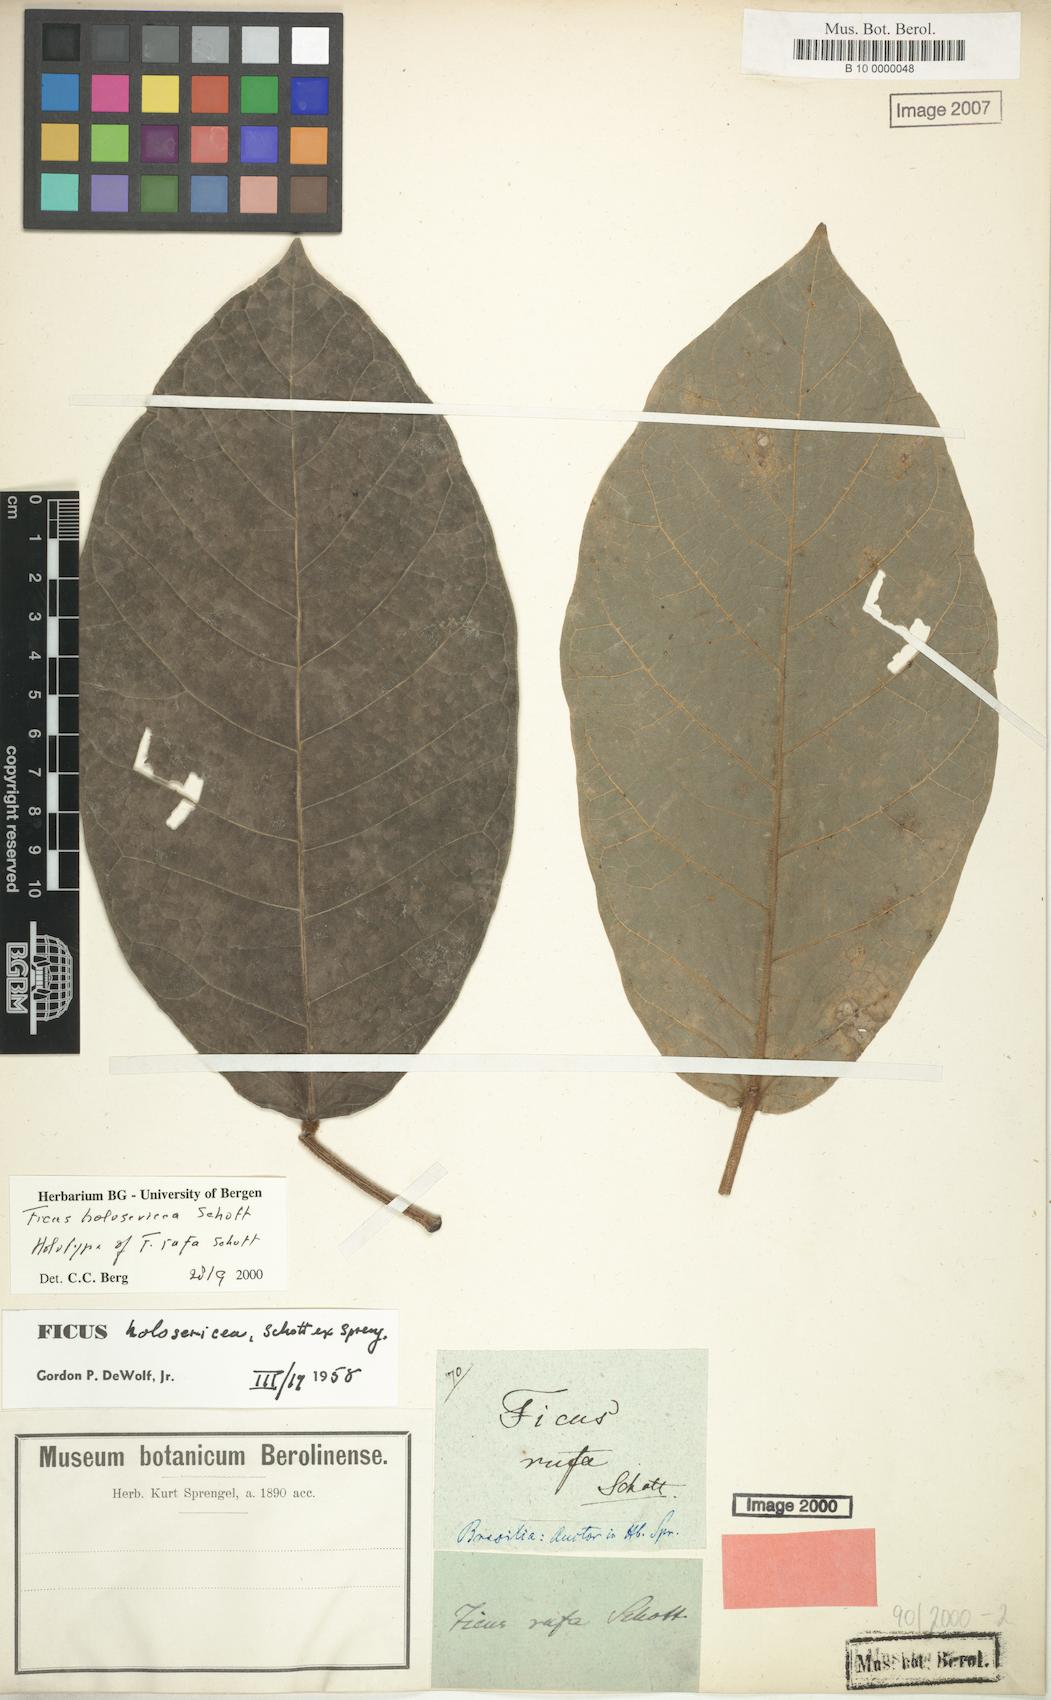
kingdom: Plantae
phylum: Tracheophyta
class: Magnoliopsida
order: Rosales
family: Moraceae
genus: Ficus
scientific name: Ficus holosericea
